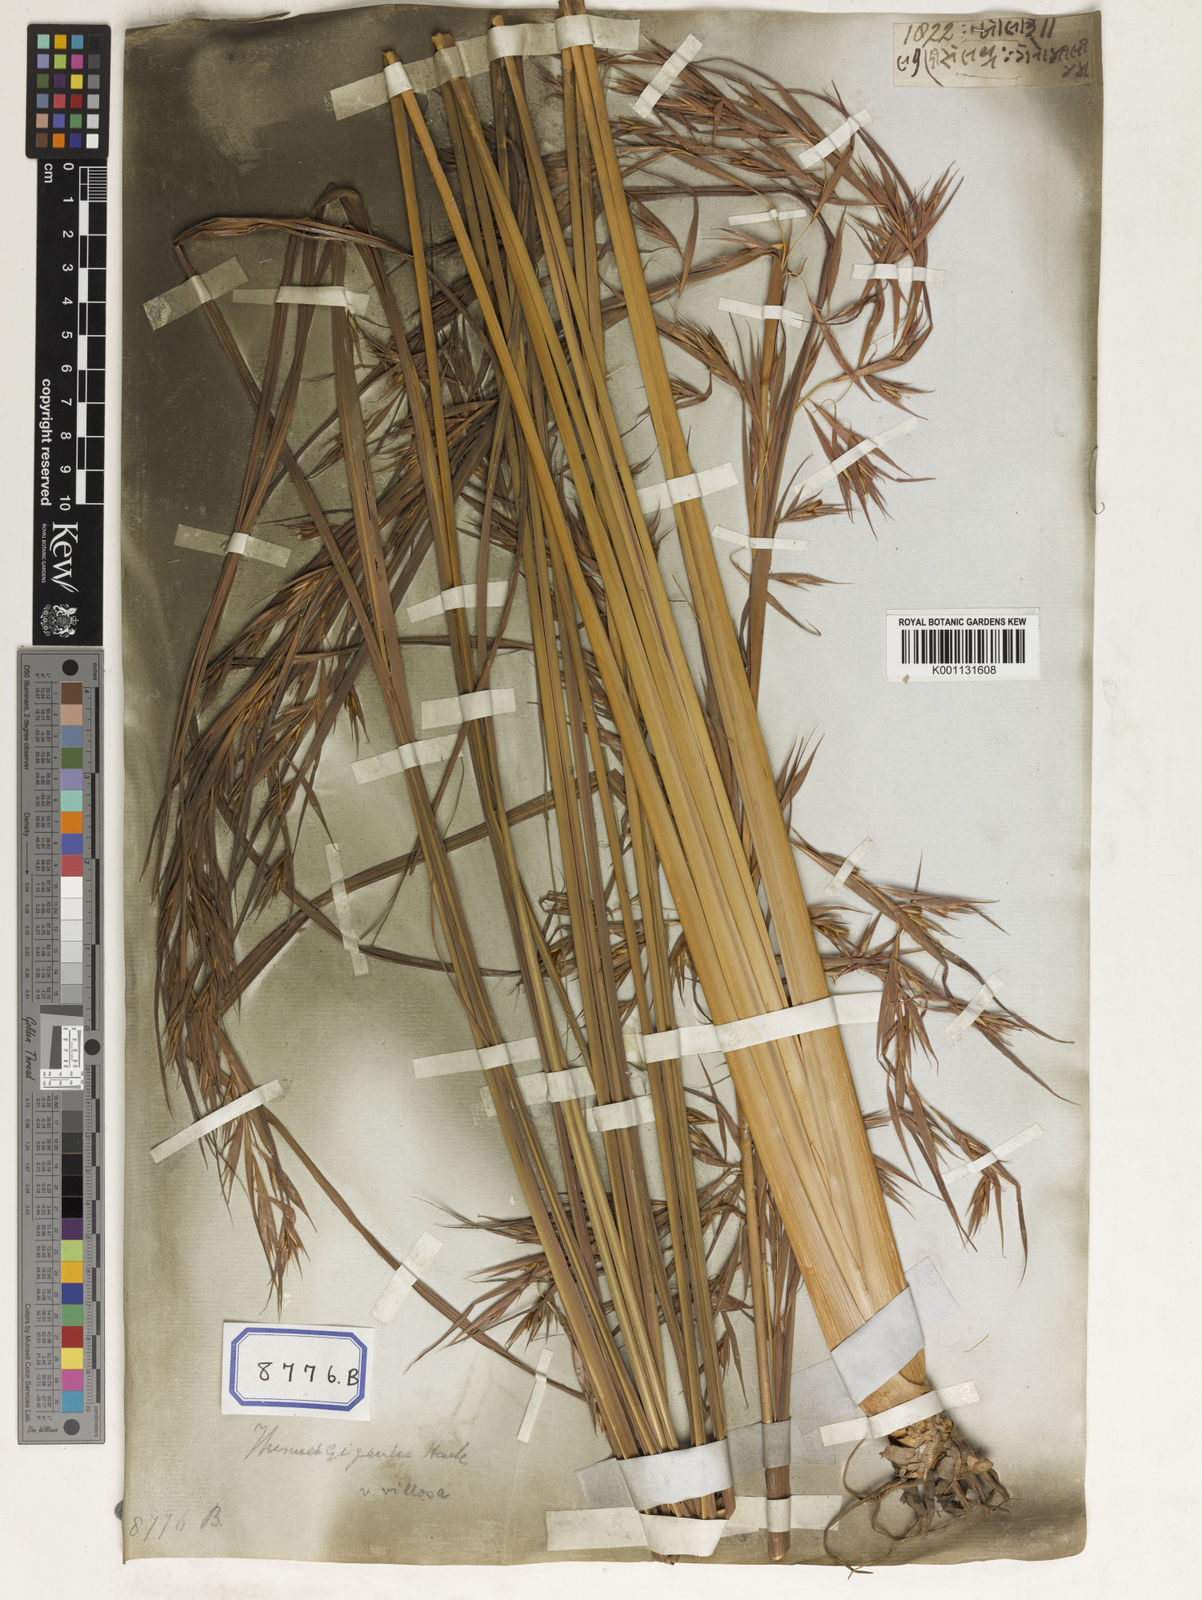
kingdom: Plantae
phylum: Tracheophyta
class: Liliopsida
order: Poales
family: Poaceae
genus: Themeda
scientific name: Themeda
